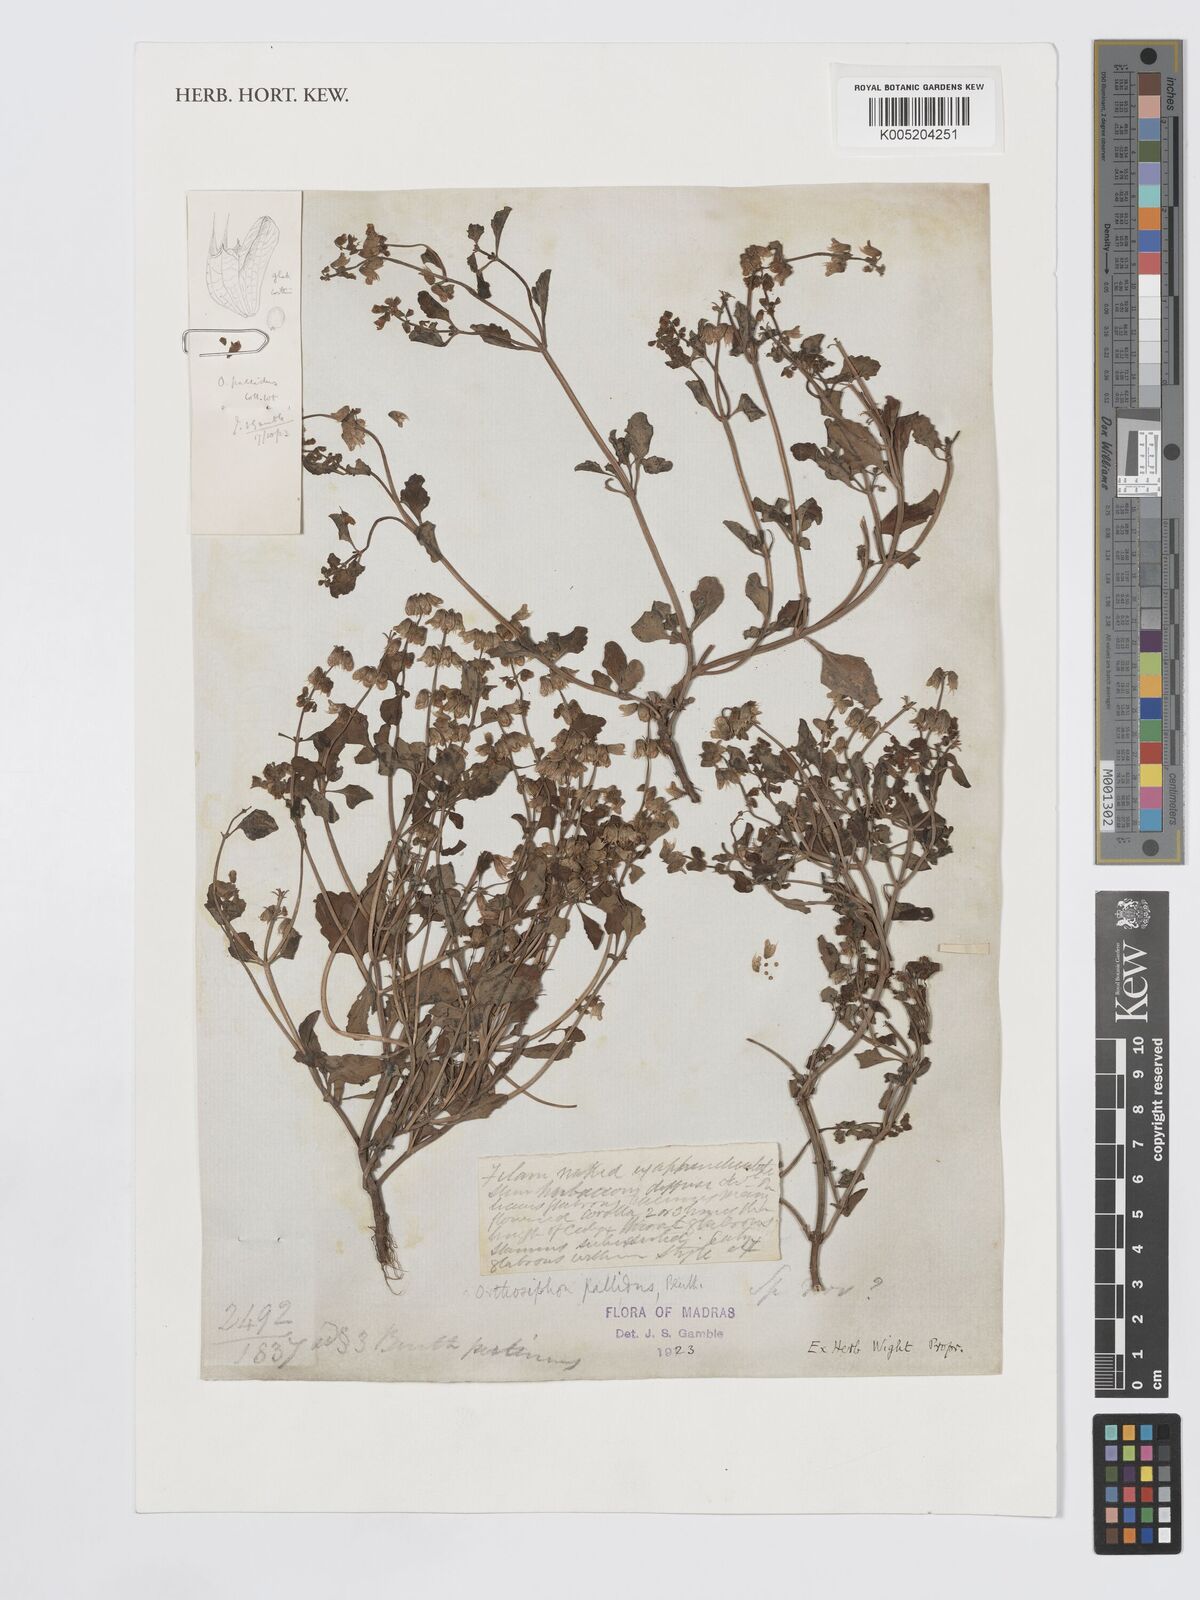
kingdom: Plantae
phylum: Tracheophyta
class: Magnoliopsida
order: Lamiales
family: Lamiaceae
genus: Orthosiphon
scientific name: Orthosiphon pallidus
